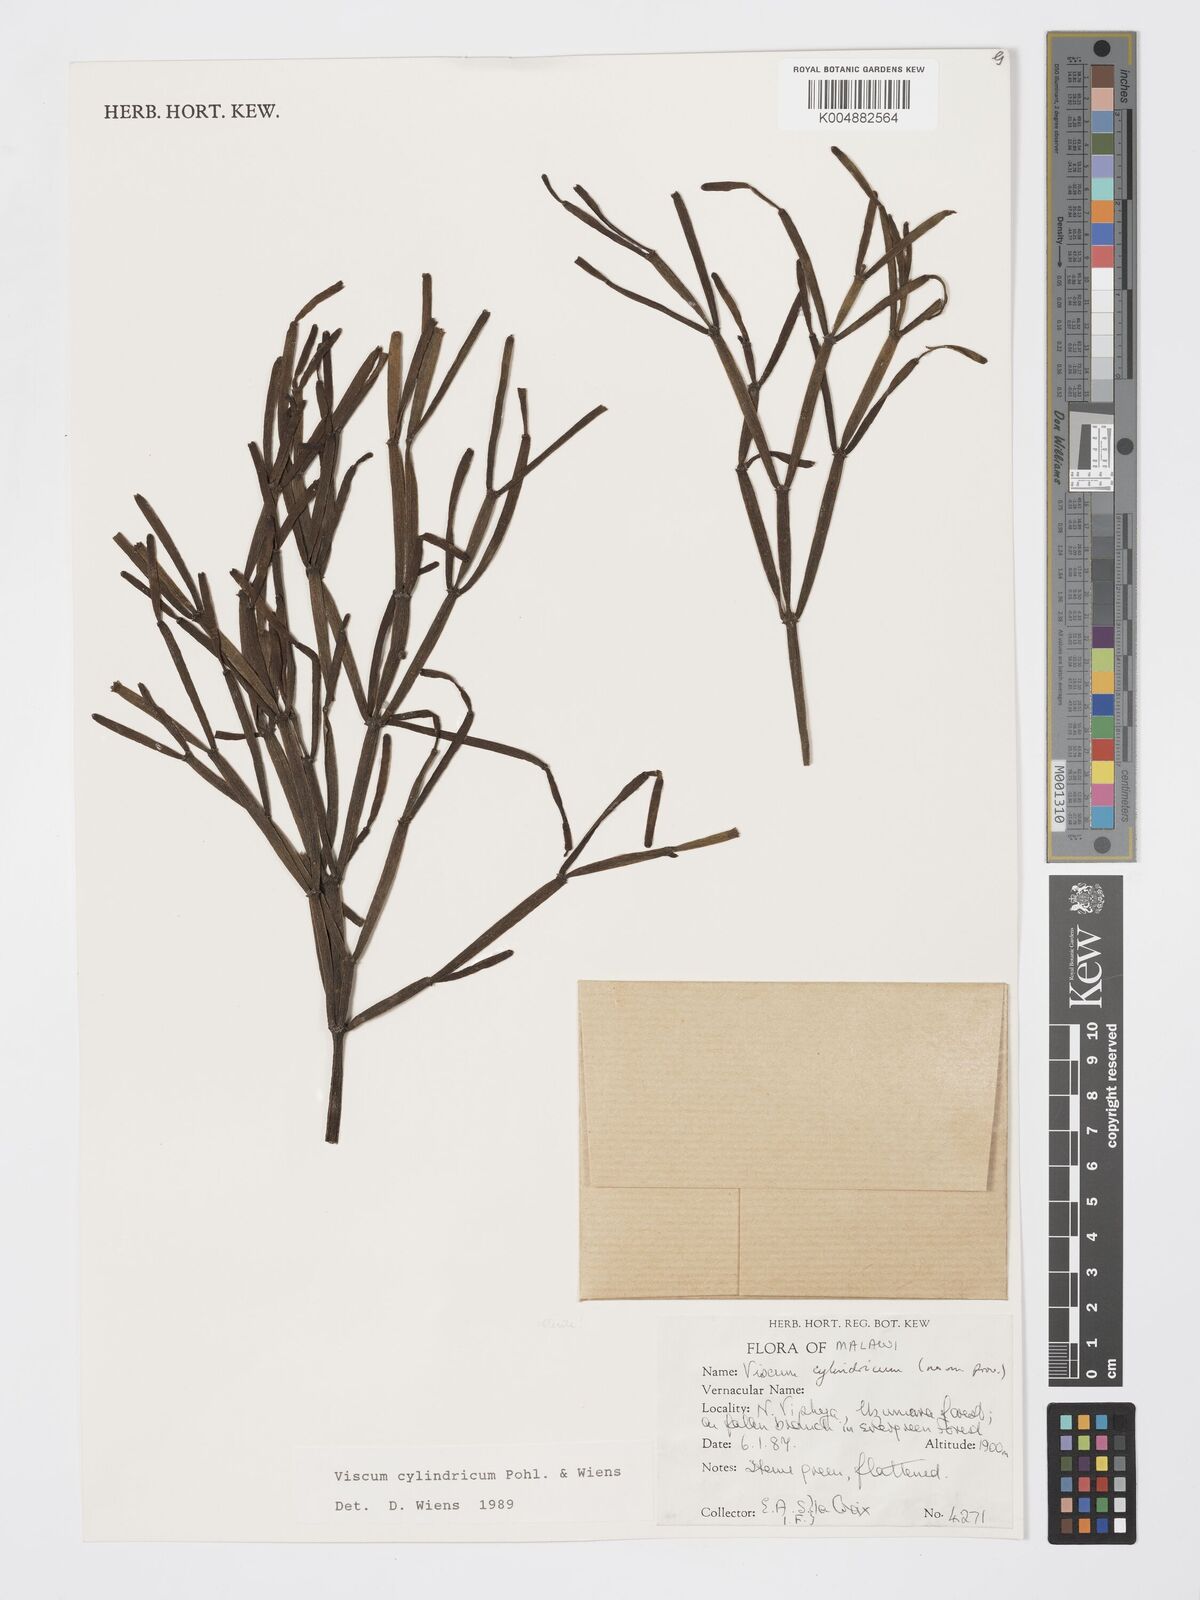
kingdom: Plantae
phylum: Tracheophyta
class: Magnoliopsida
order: Santalales
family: Viscaceae
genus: Viscum
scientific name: Viscum cylindricum
